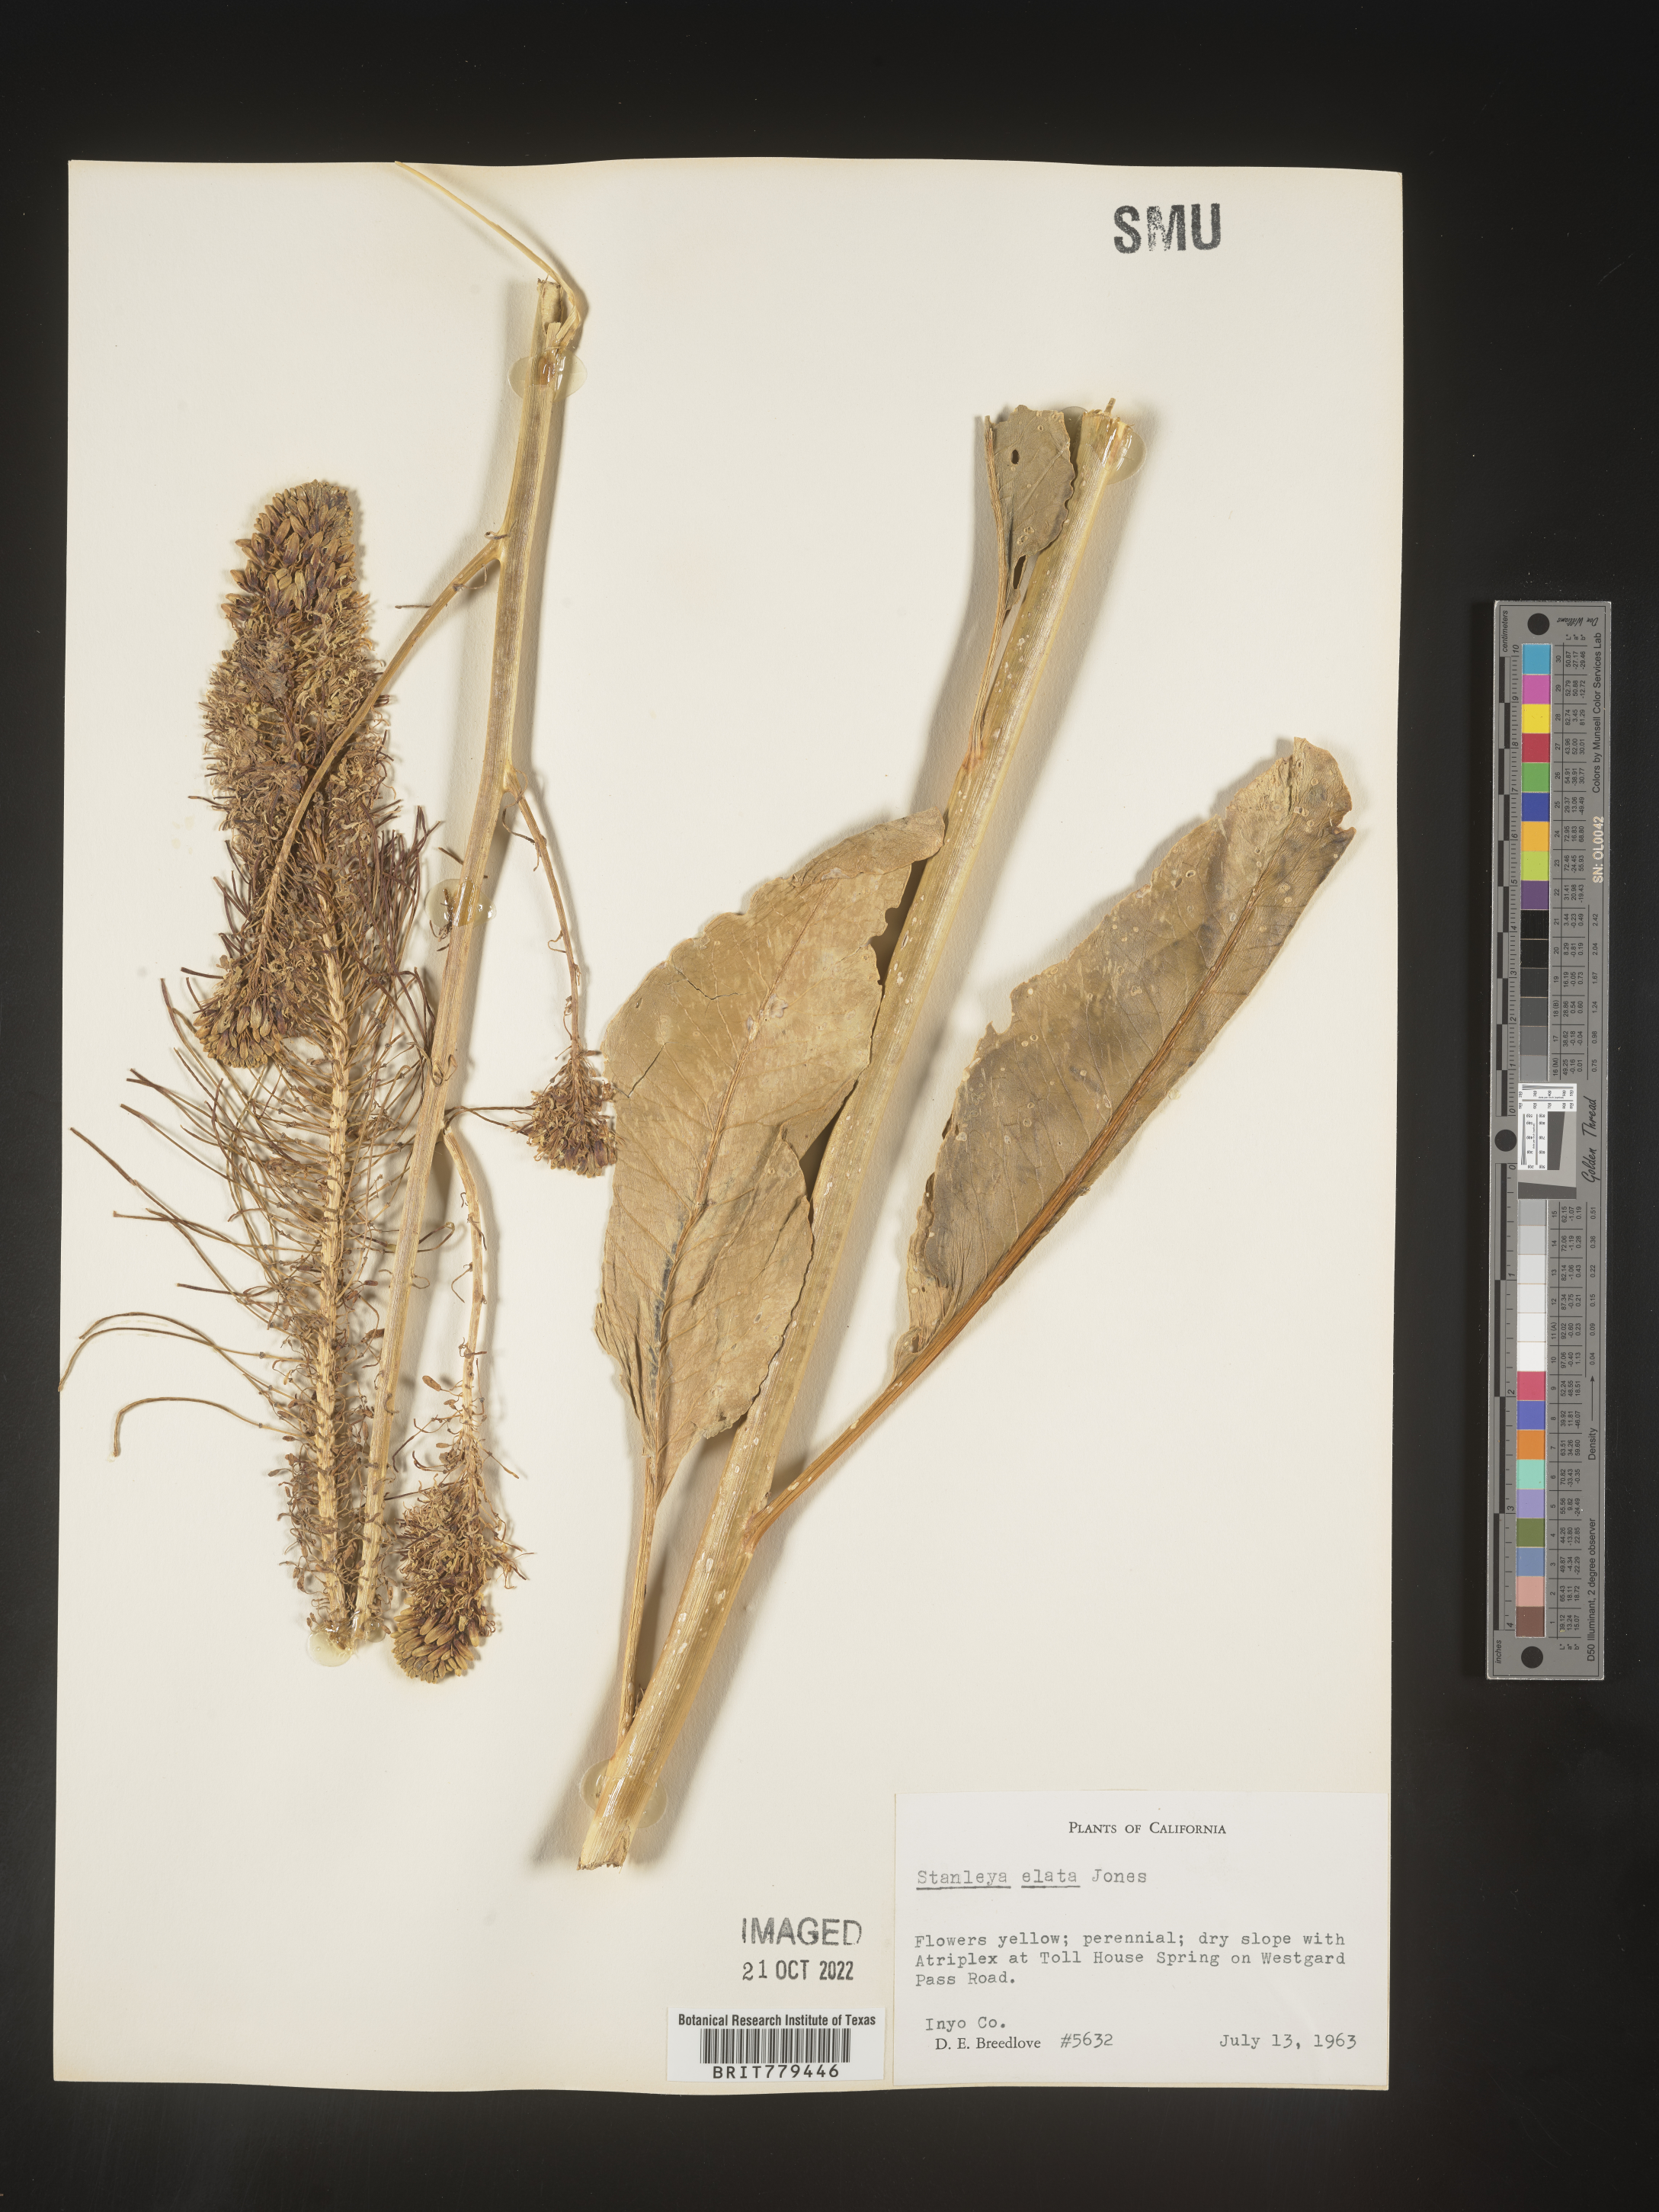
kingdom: Plantae
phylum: Tracheophyta
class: Magnoliopsida
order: Brassicales
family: Brassicaceae
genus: Stanleya
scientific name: Stanleya
